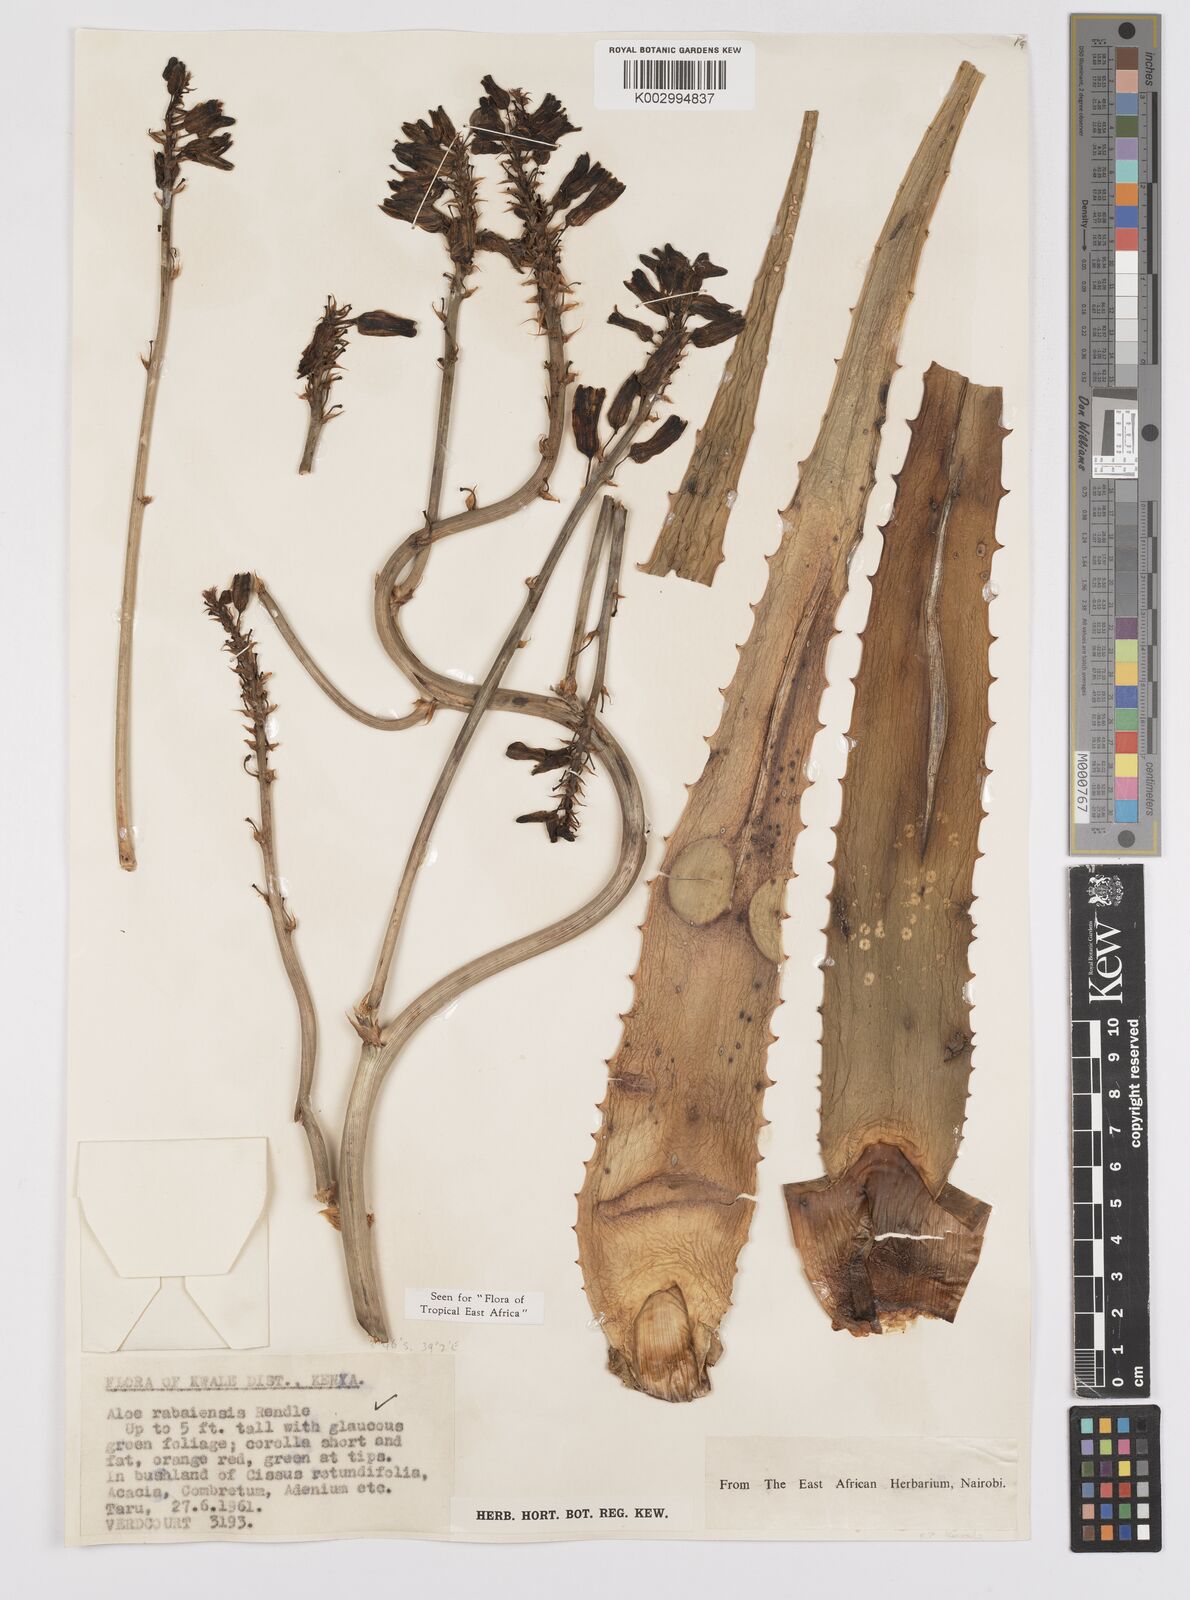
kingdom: Plantae
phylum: Tracheophyta
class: Liliopsida
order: Asparagales
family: Asphodelaceae
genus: Aloe
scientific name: Aloe rabaiensis
